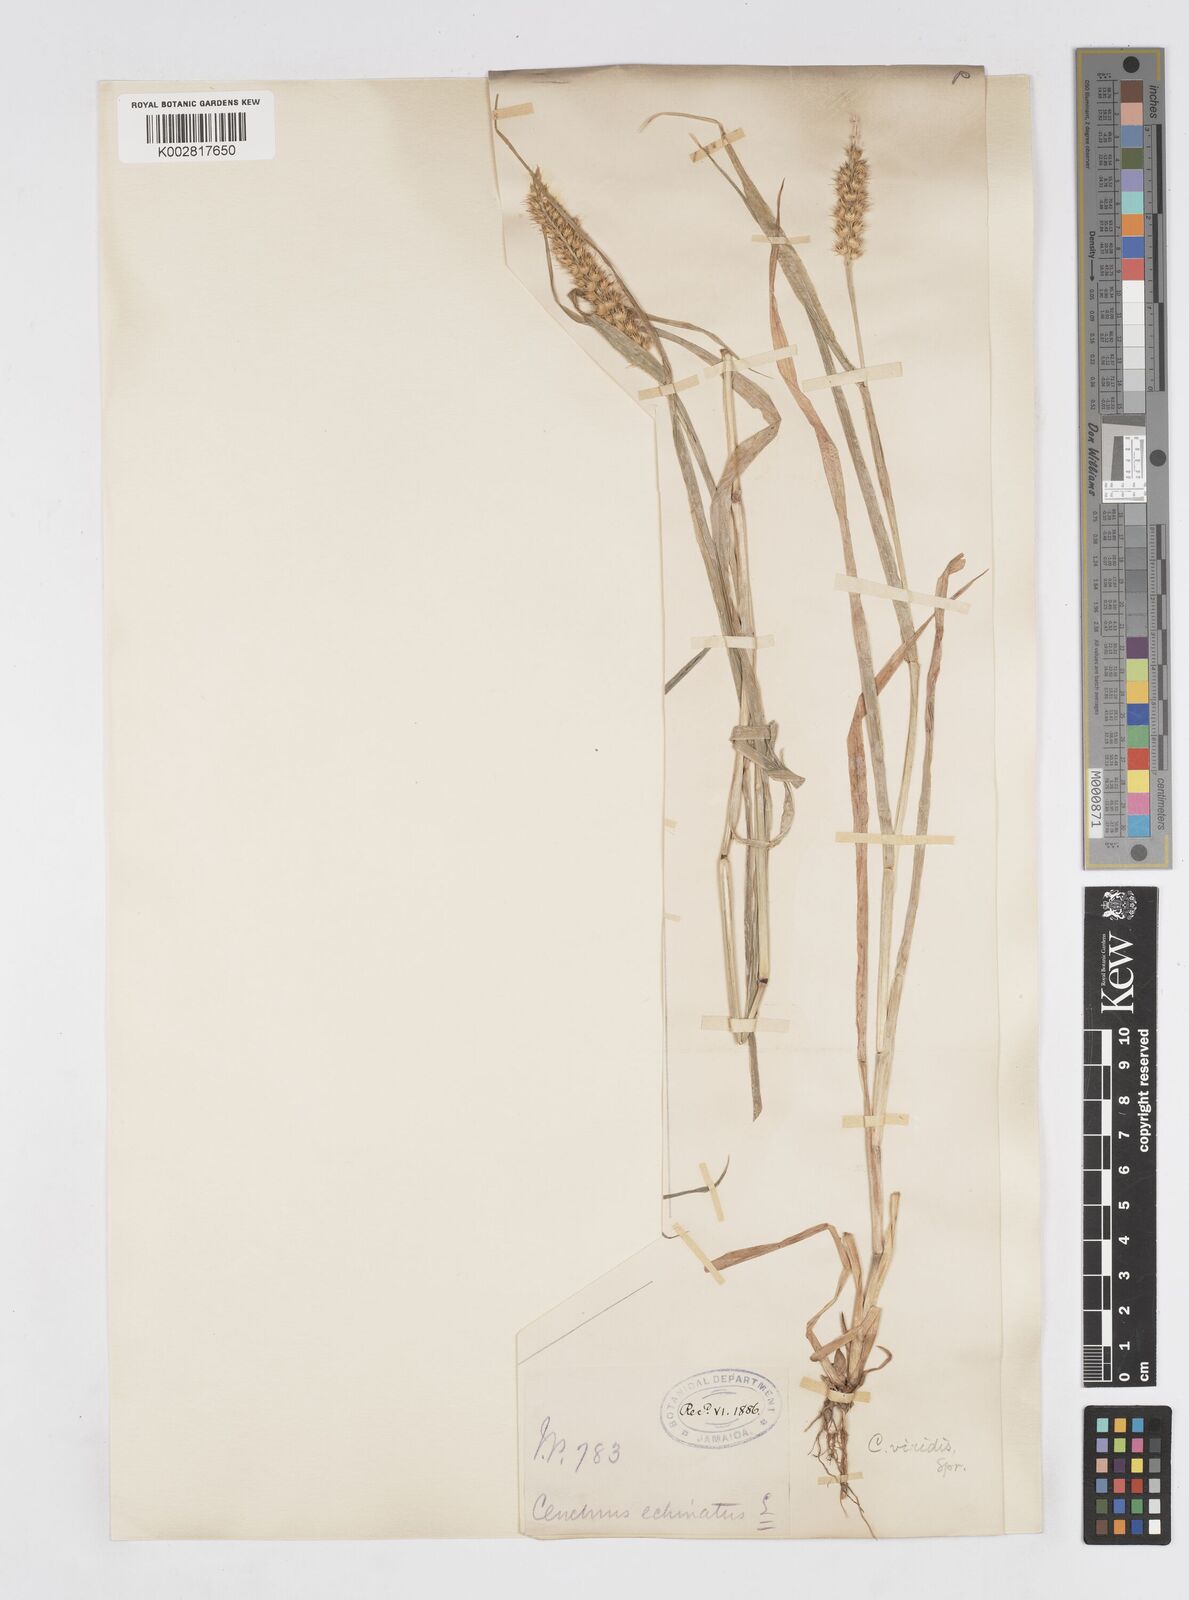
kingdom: Plantae
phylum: Tracheophyta
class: Liliopsida
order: Poales
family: Poaceae
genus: Cenchrus
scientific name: Cenchrus brownii
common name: Slim-bristle sandbur
